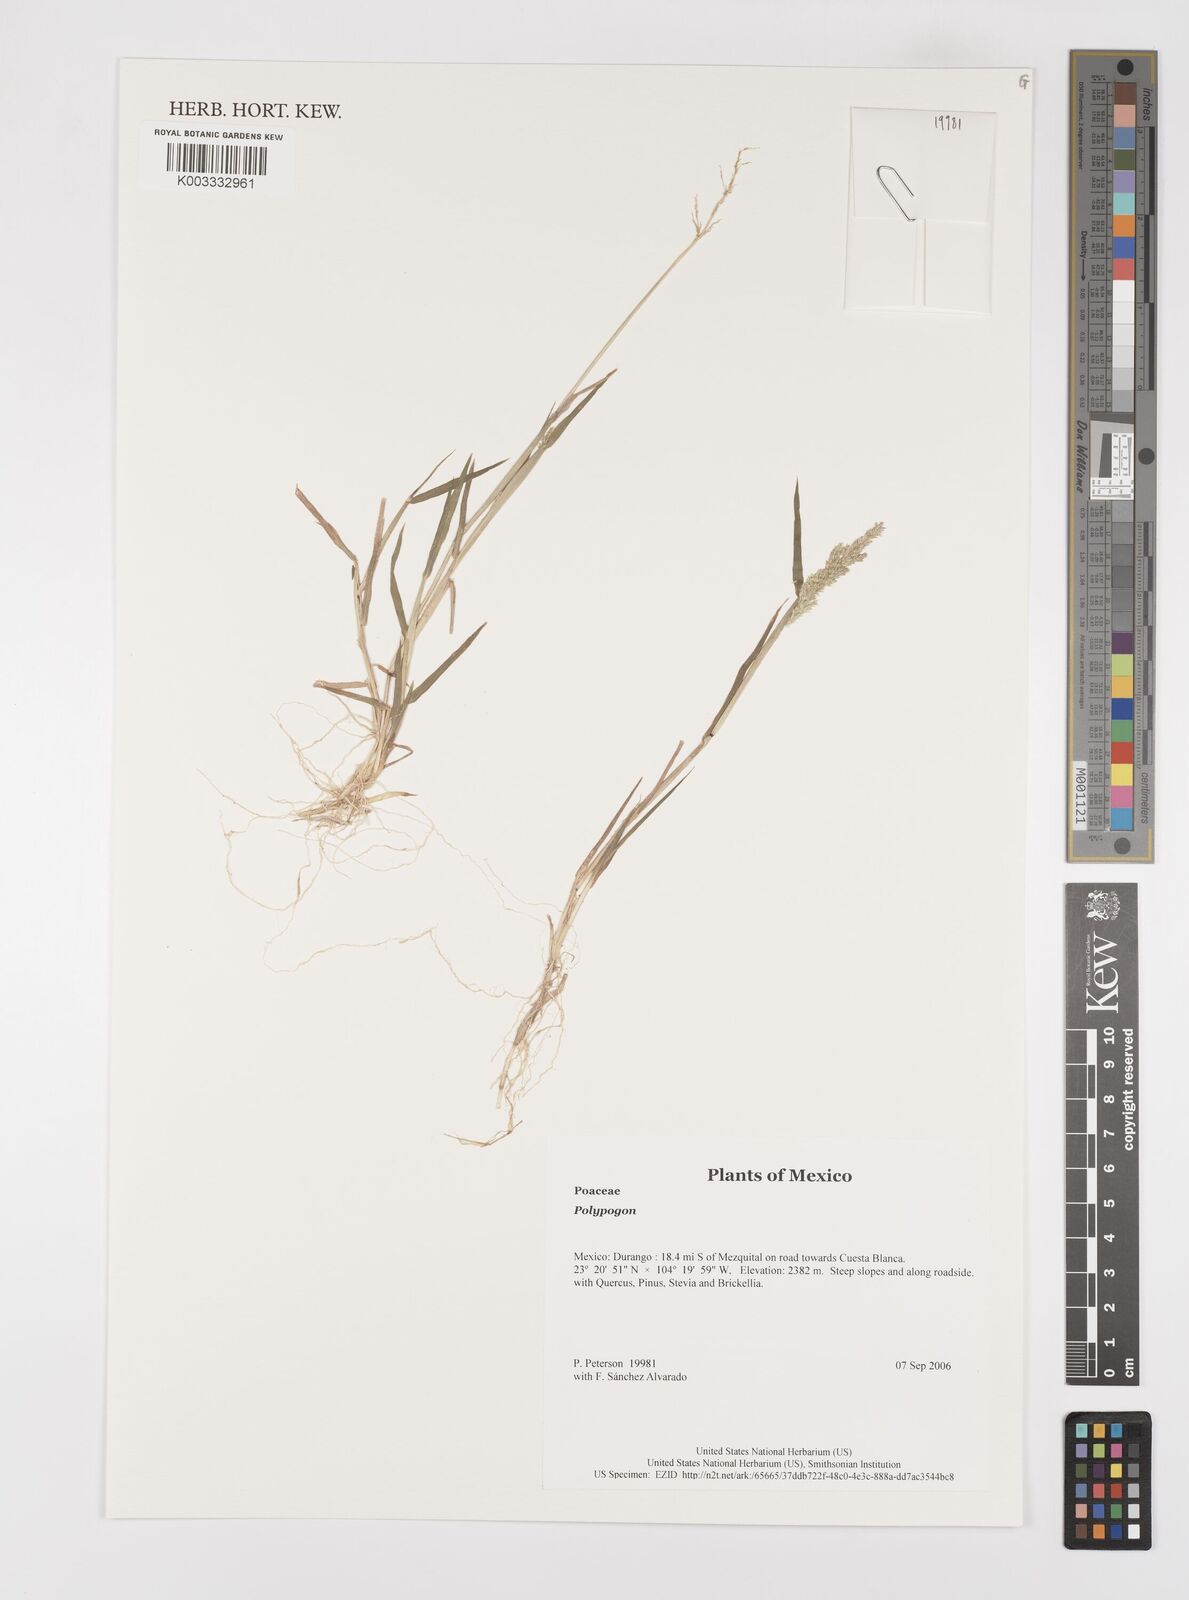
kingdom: Plantae
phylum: Tracheophyta
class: Liliopsida
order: Poales
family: Poaceae
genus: Polypogon
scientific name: Polypogon
